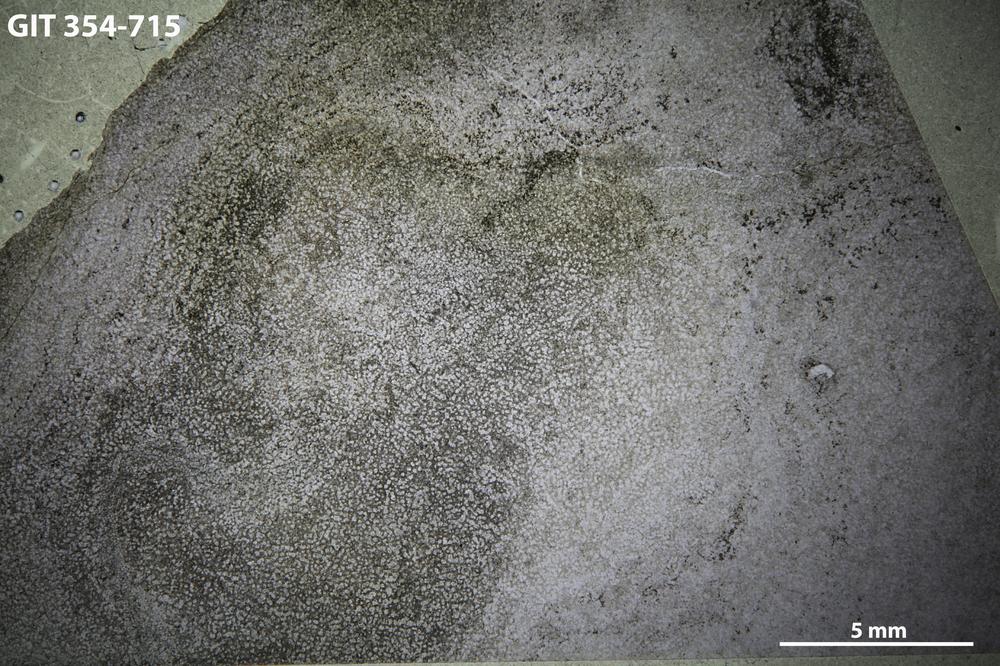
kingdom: Animalia
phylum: Porifera
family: Actinostromatidae
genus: Plectostroma
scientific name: Plectostroma
